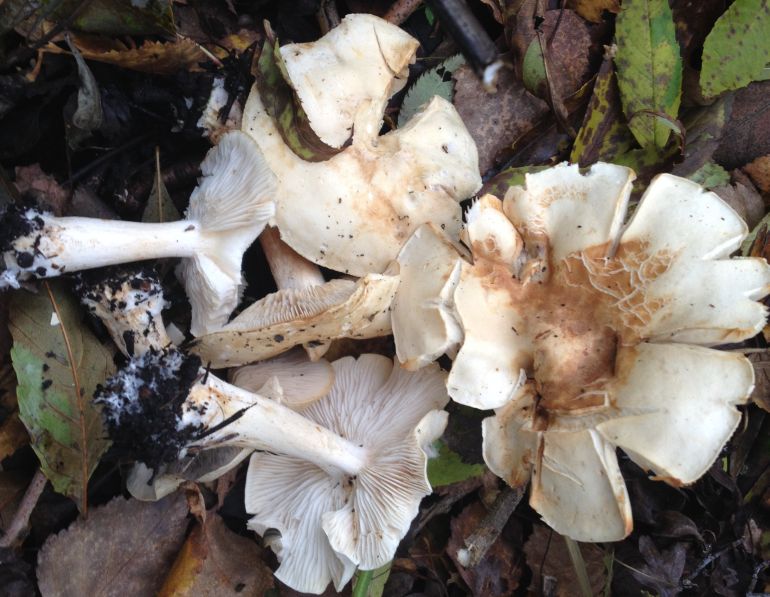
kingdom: Fungi
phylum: Basidiomycota
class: Agaricomycetes
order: Agaricales
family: Tricholomataceae
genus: Tricholoma
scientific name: Tricholoma stiparophyllum
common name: hvid ridderhat
